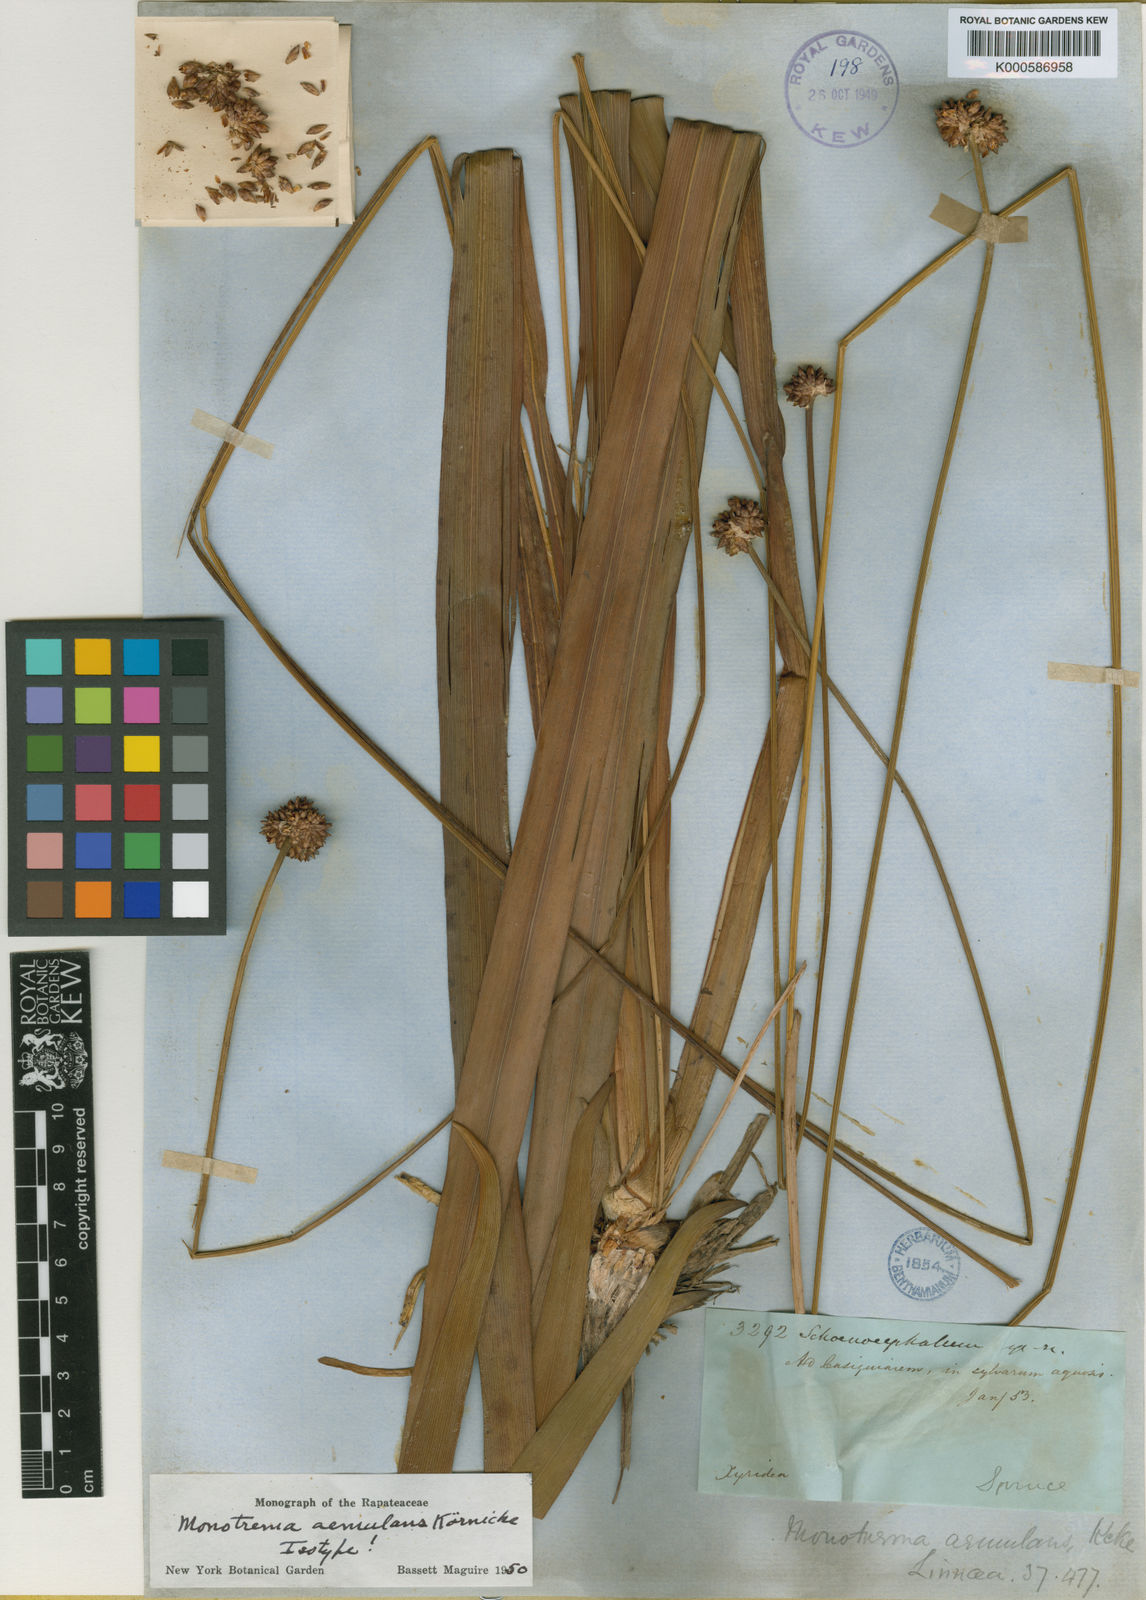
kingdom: Plantae
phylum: Tracheophyta
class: Liliopsida
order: Poales
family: Rapateaceae
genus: Monotrema
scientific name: Monotrema
